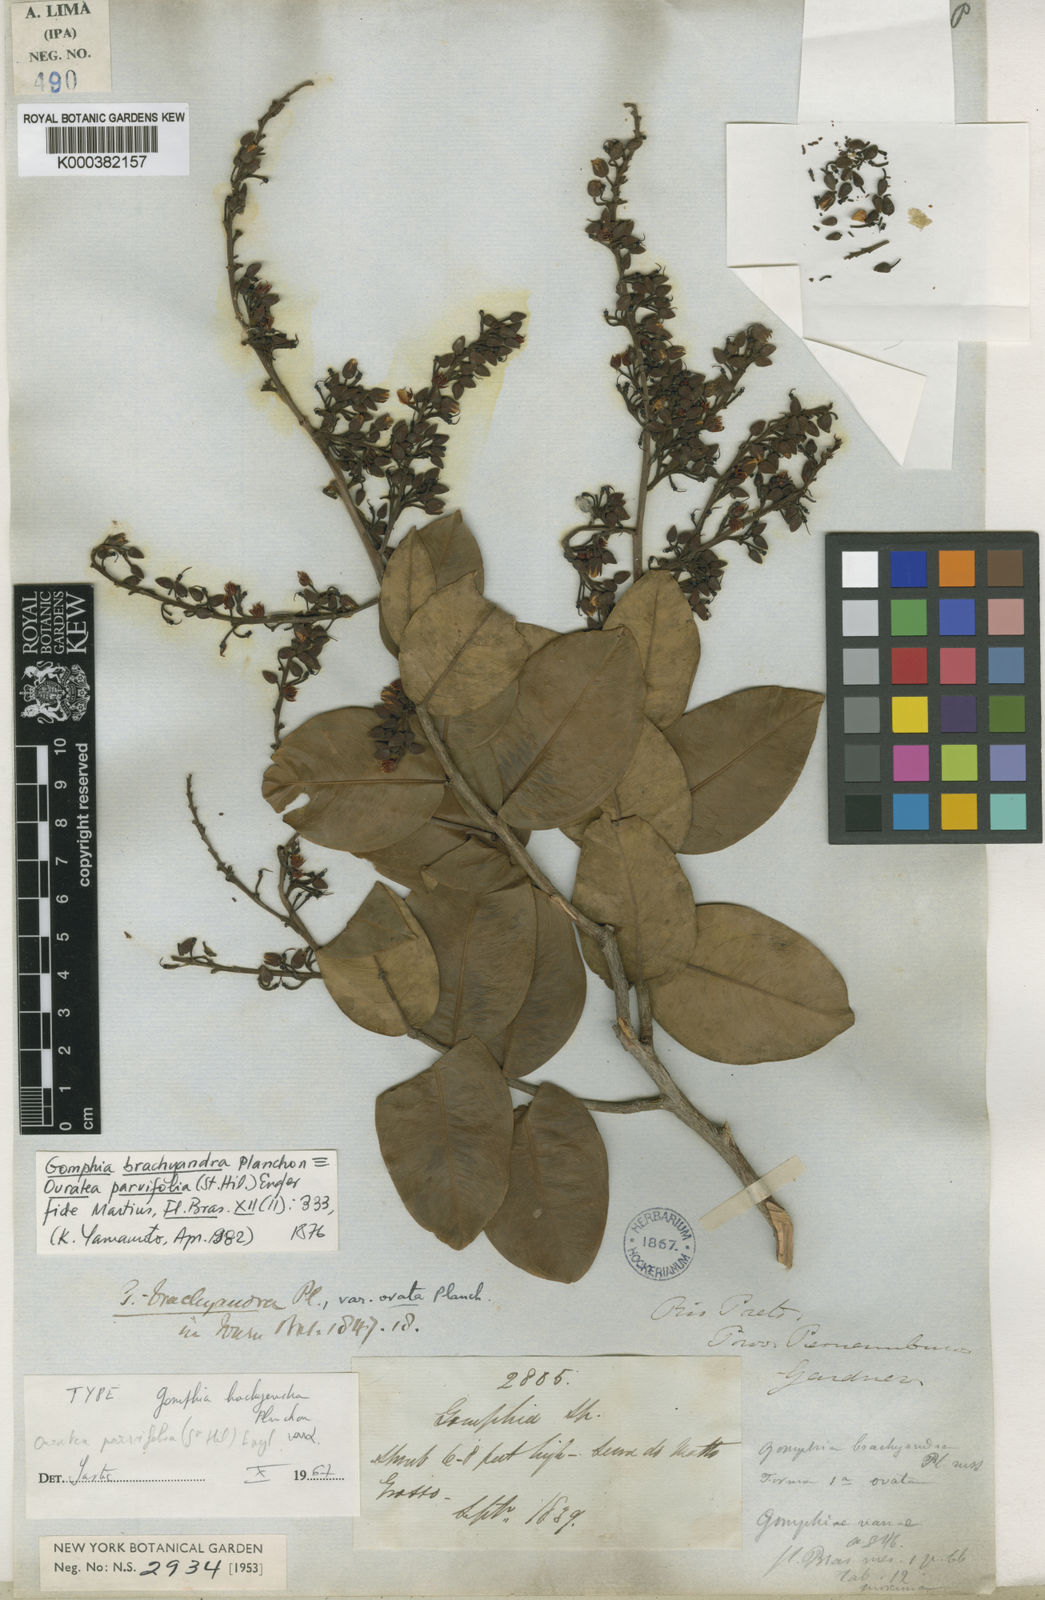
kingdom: Plantae
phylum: Tracheophyta
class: Magnoliopsida
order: Malpighiales
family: Ochnaceae
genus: Ouratea
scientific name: Ouratea parvifolia
